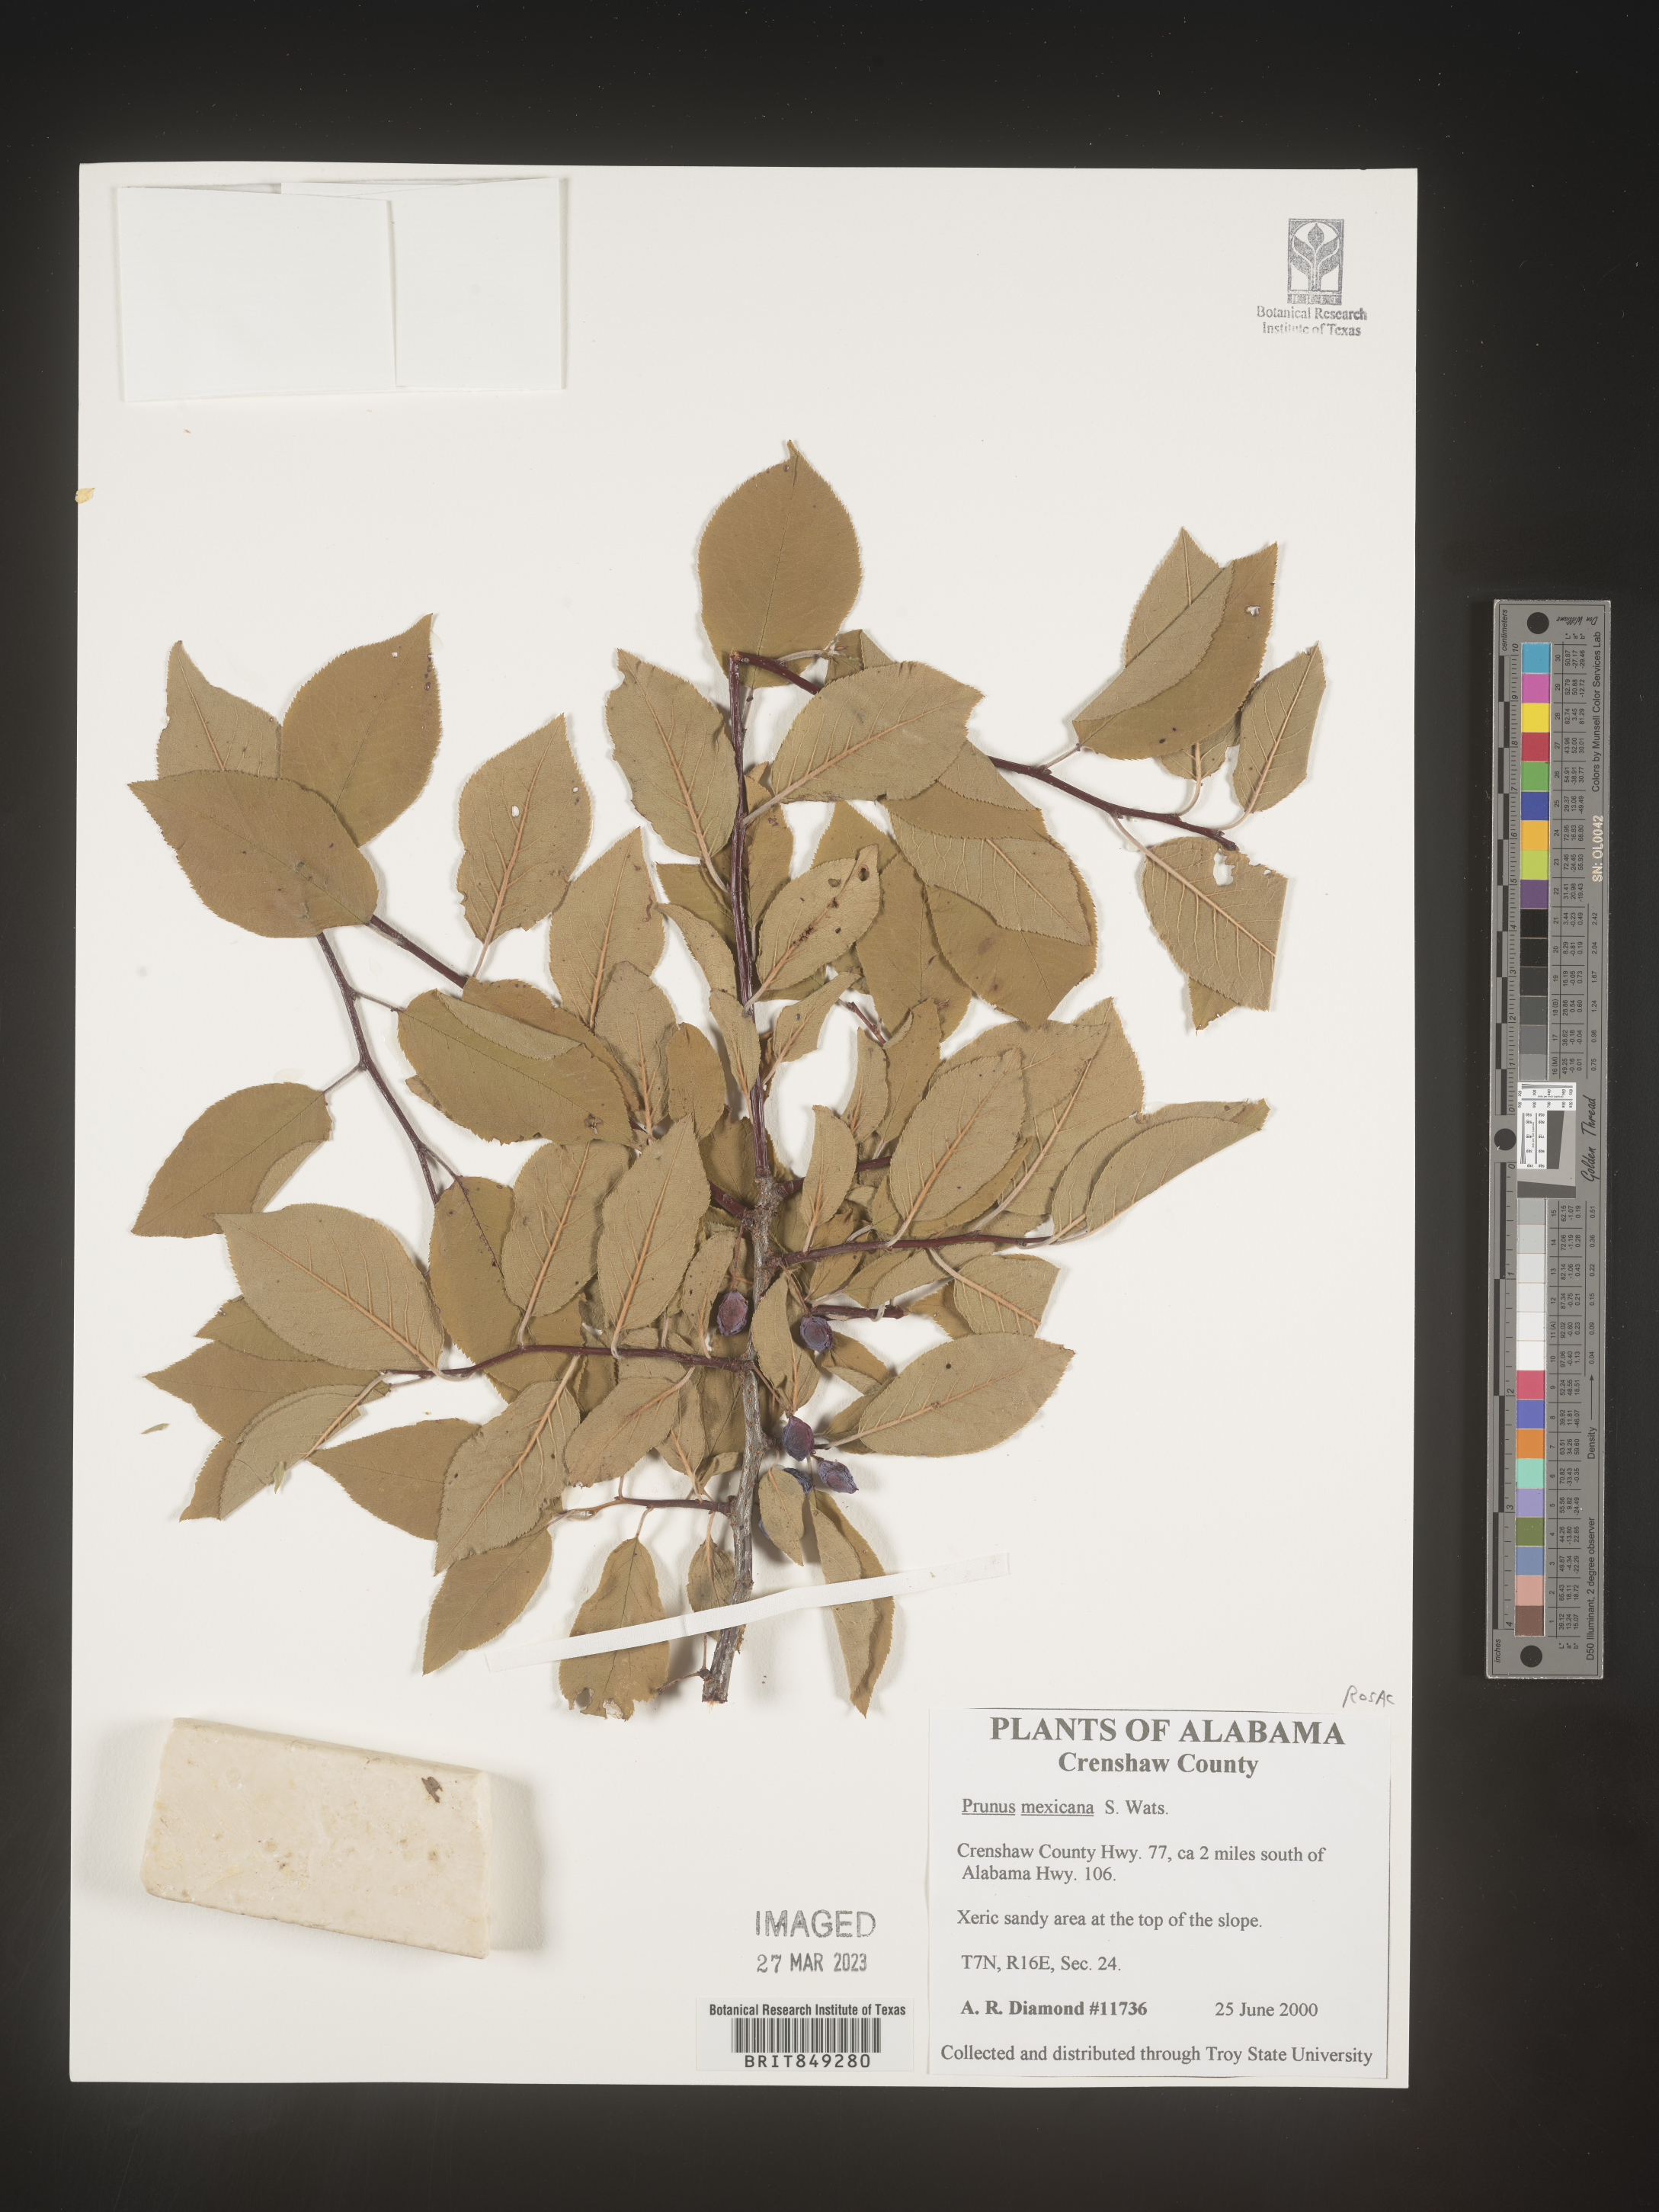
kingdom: Plantae
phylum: Tracheophyta
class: Magnoliopsida
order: Rosales
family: Rosaceae
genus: Prunus
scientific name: Prunus mexicana
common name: Mexican plum
